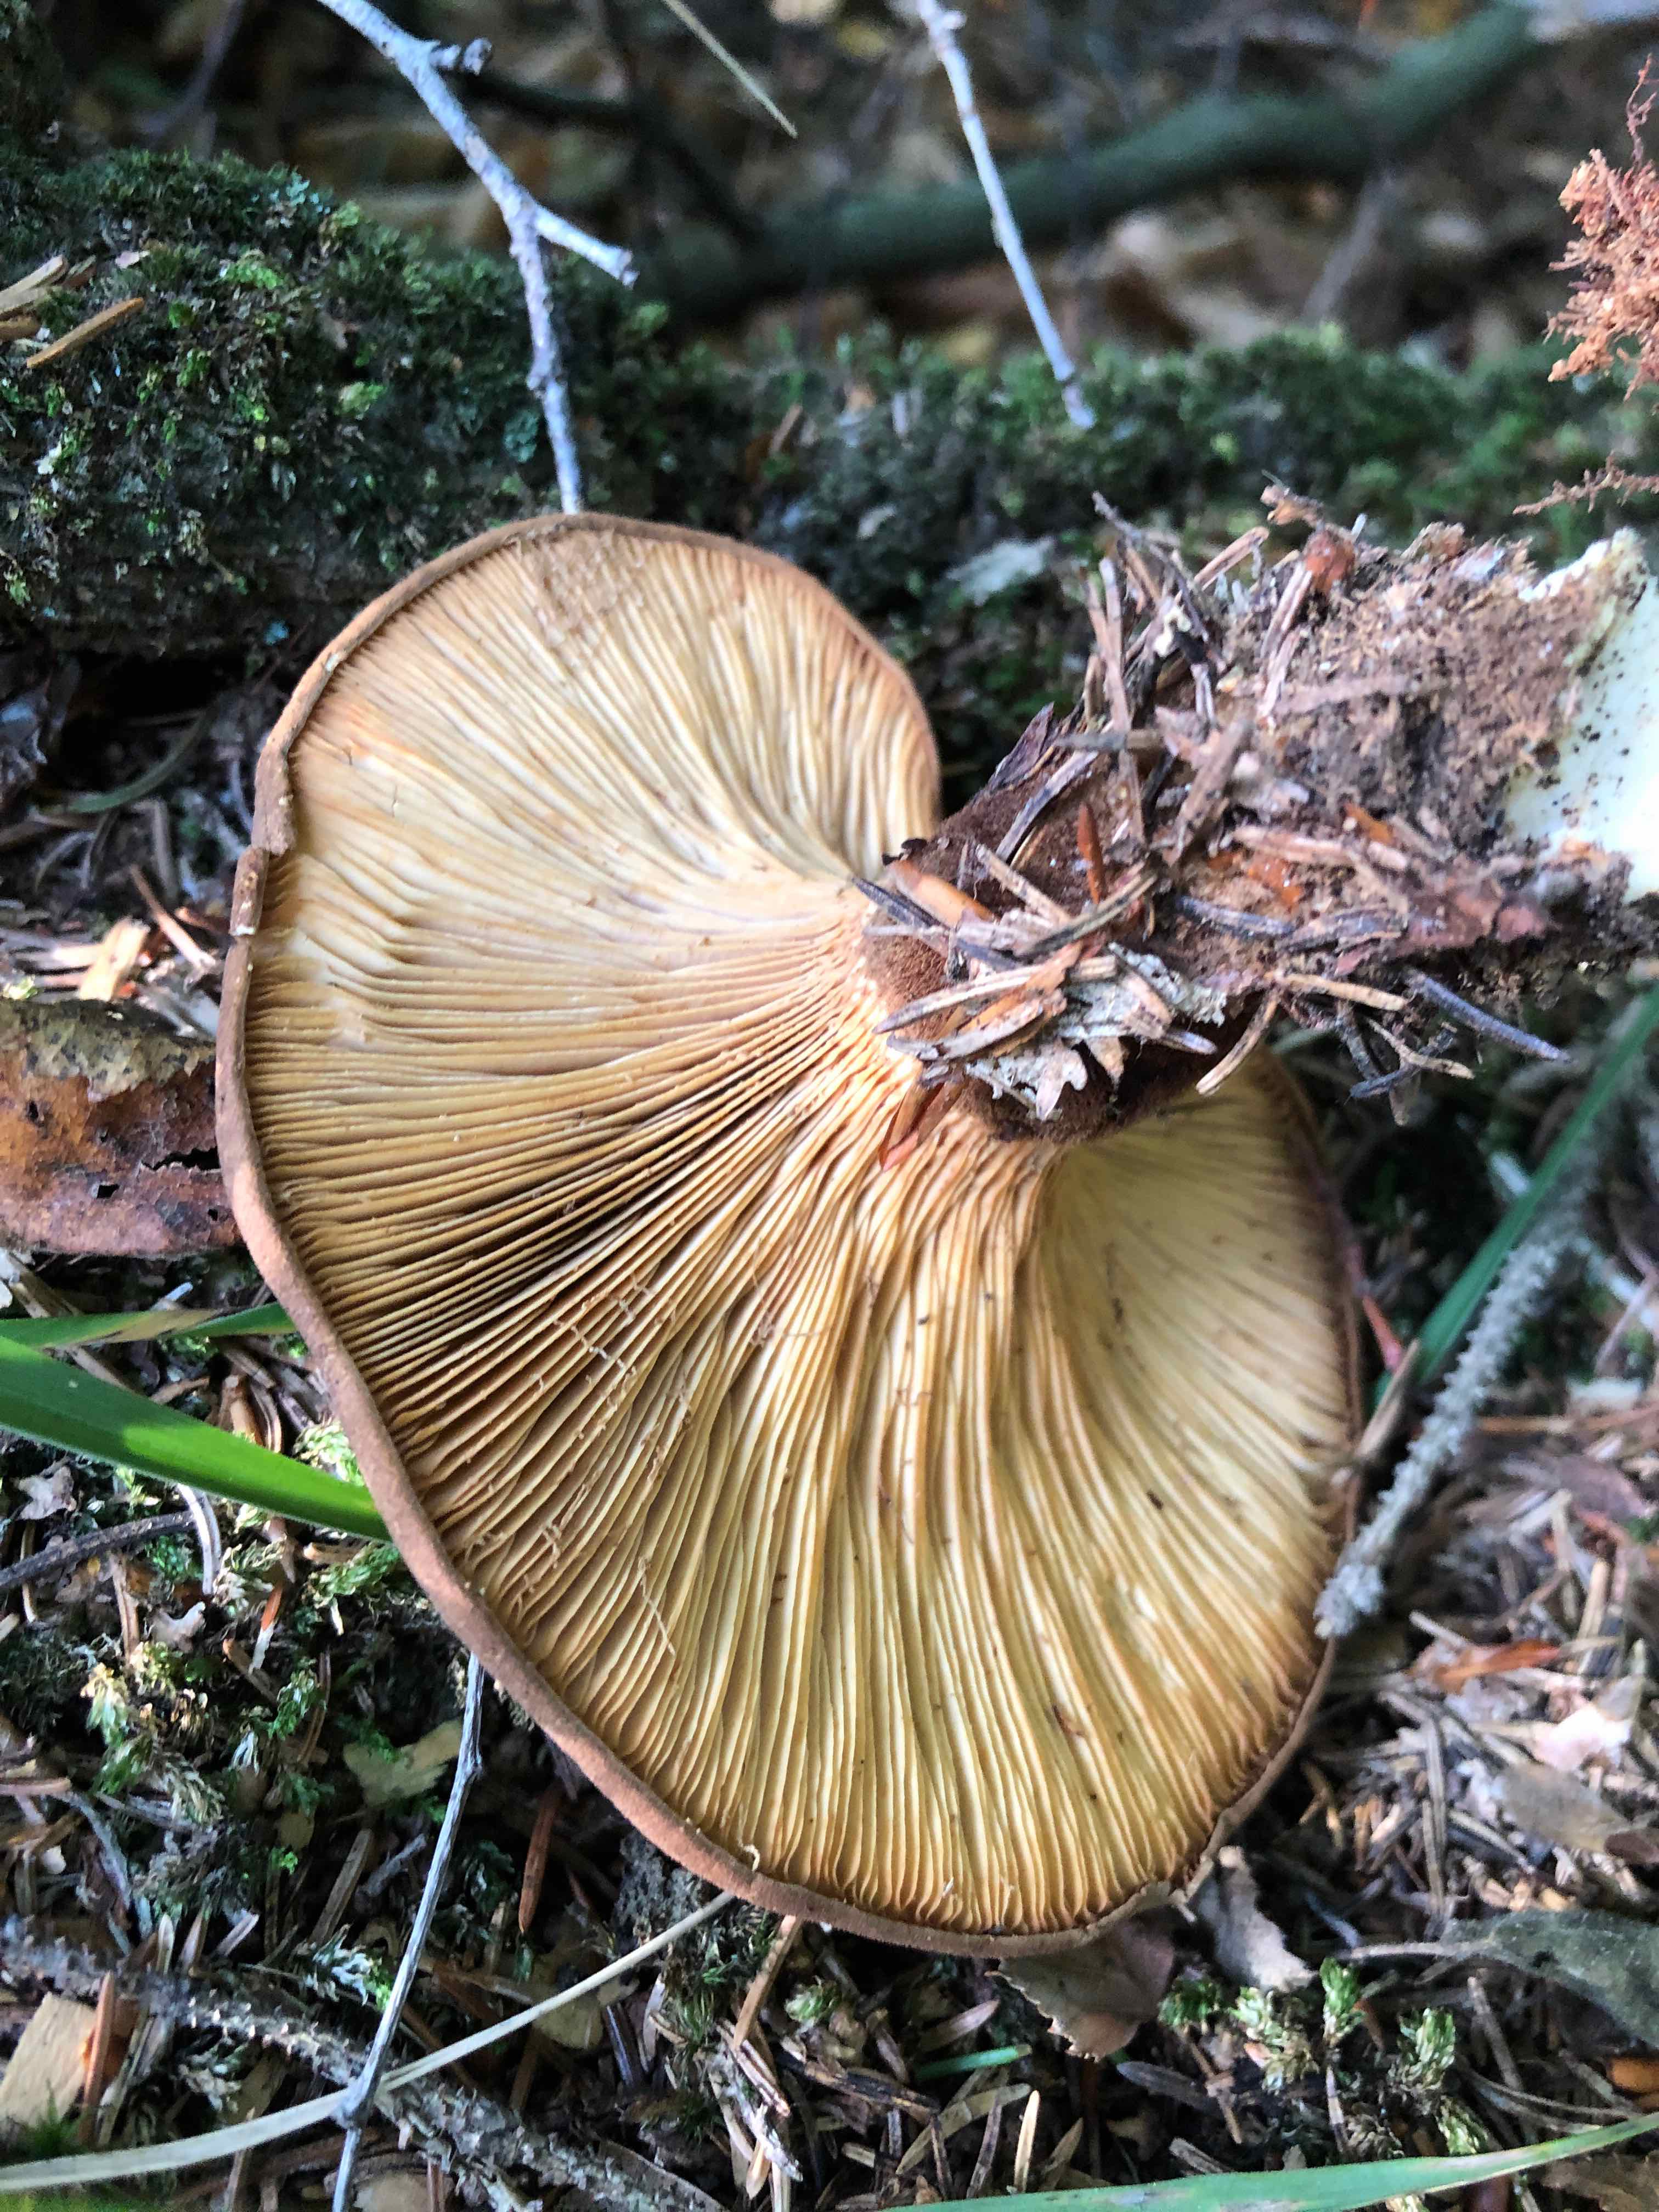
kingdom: Fungi
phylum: Basidiomycota
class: Agaricomycetes
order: Boletales
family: Tapinellaceae
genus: Tapinella
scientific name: Tapinella atrotomentosa
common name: sortfiltet viftesvamp
